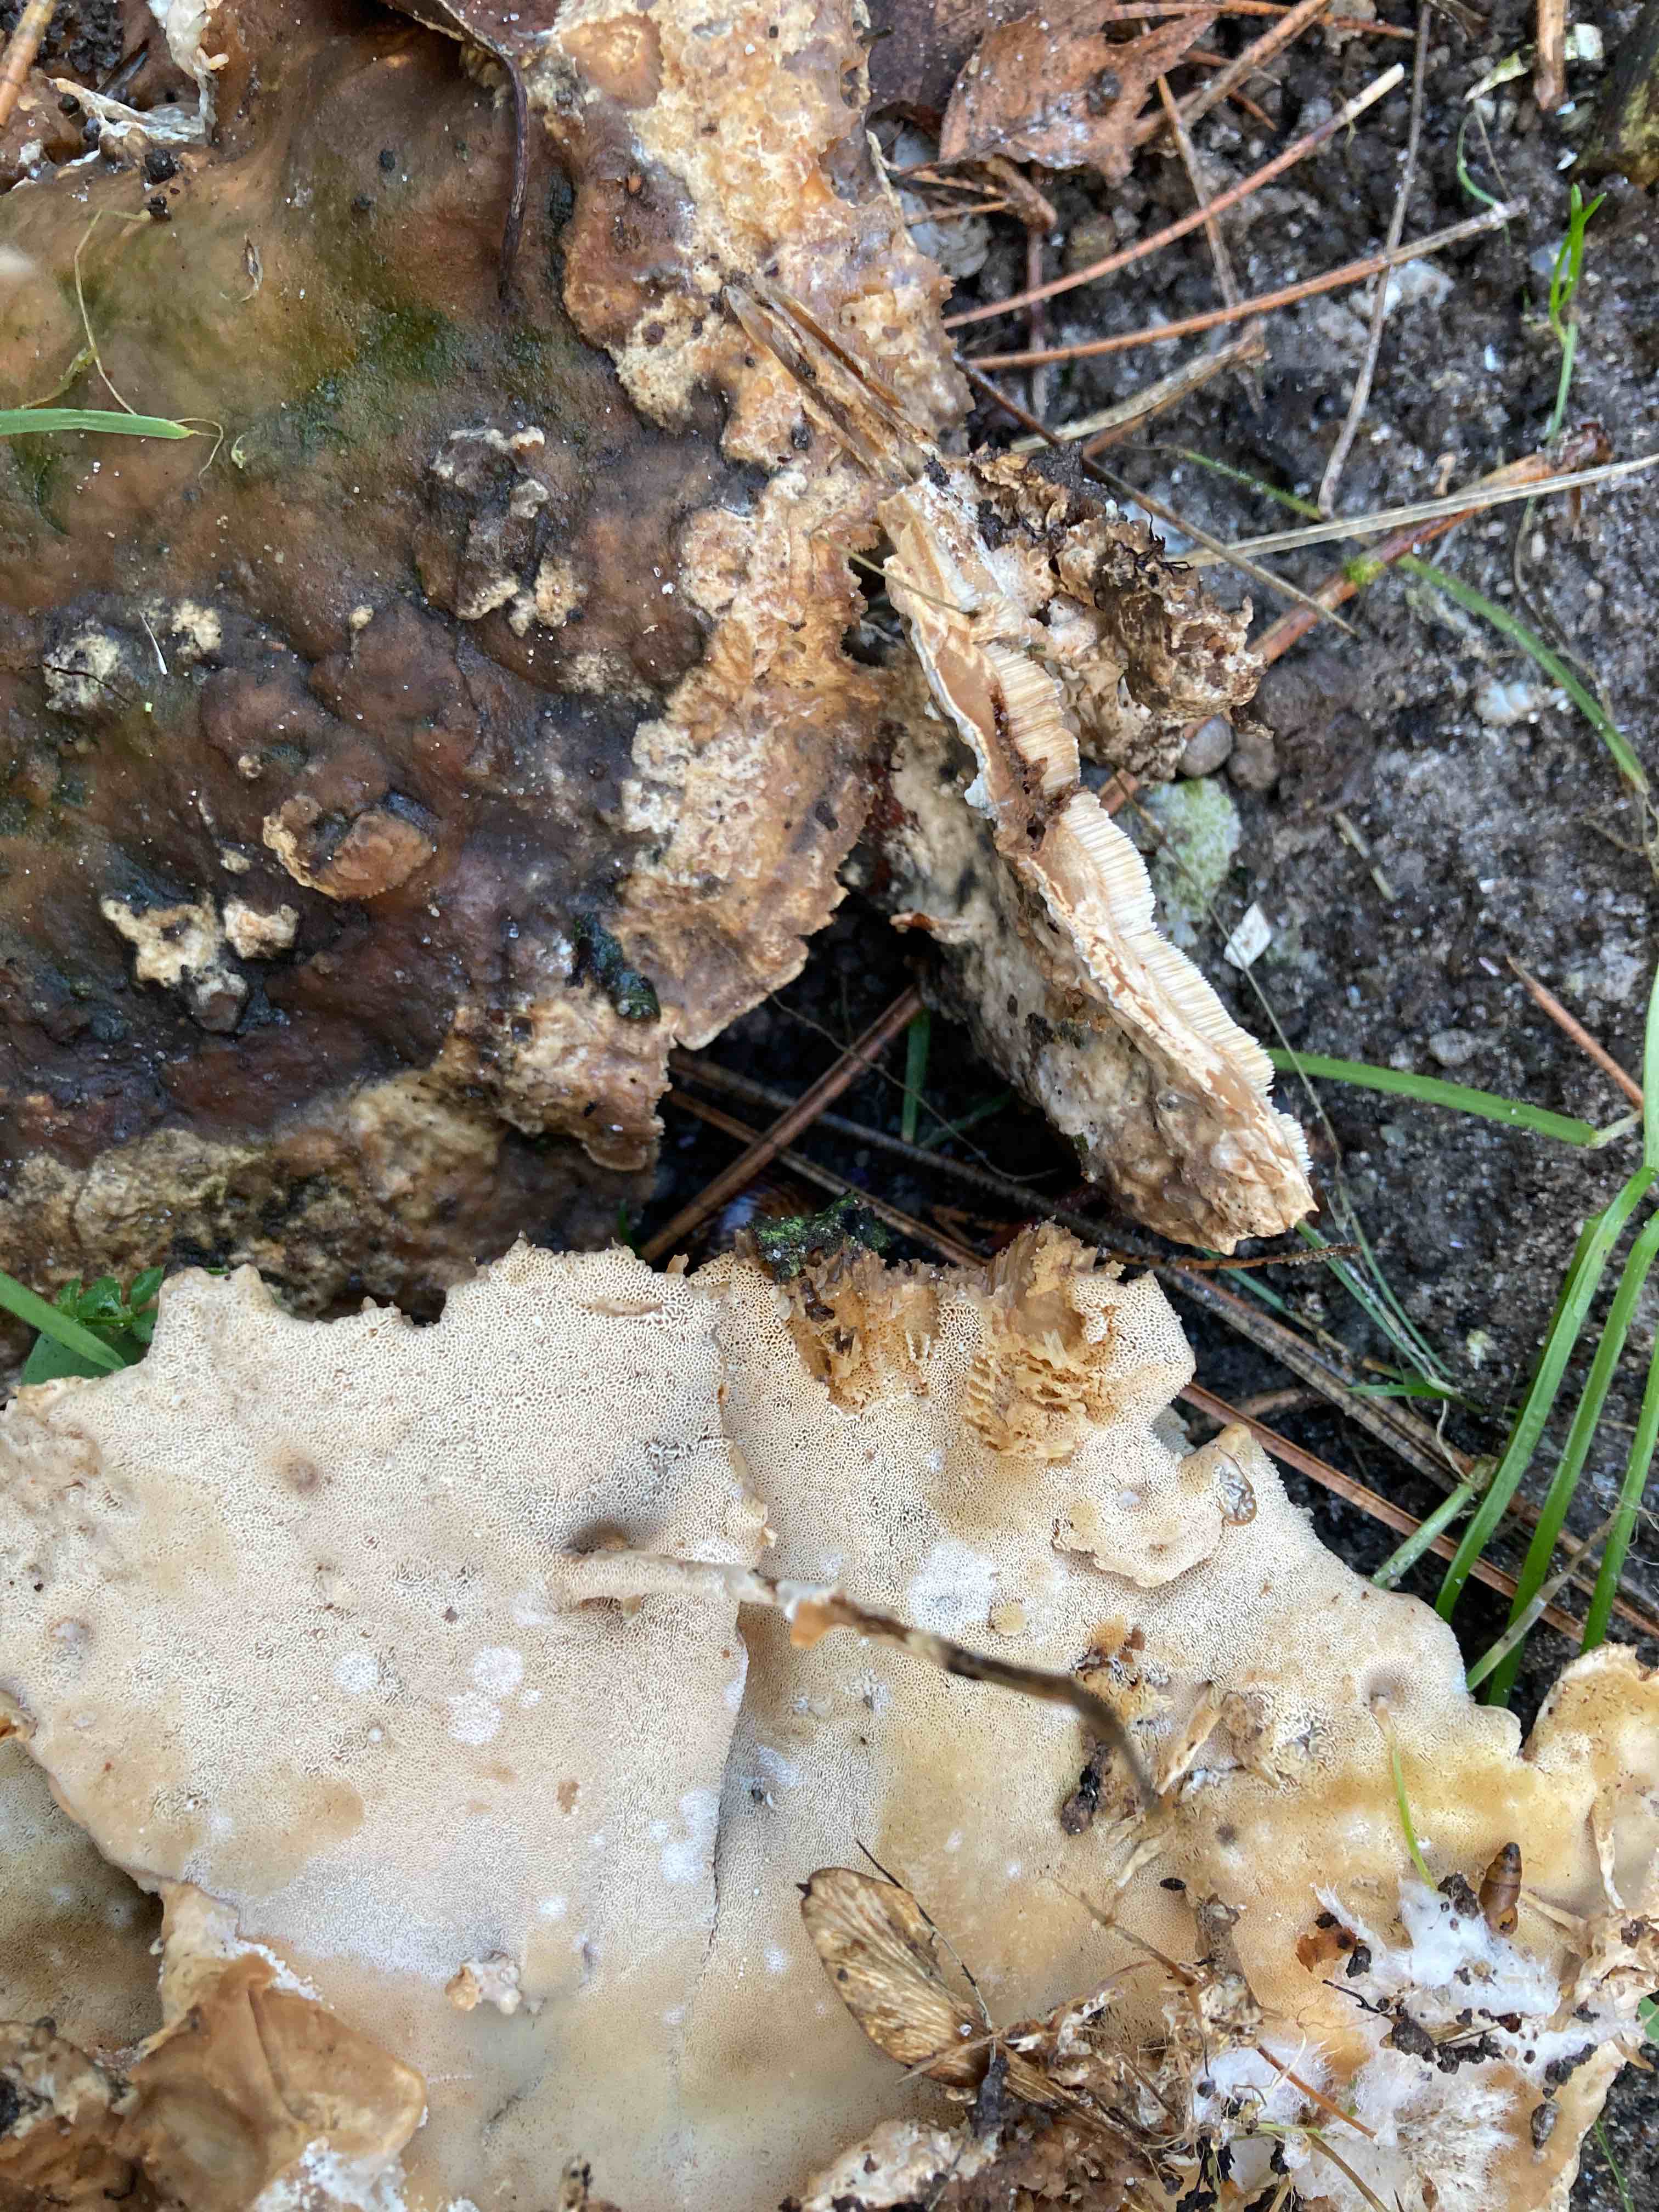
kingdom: Fungi
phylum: Basidiomycota
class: Agaricomycetes
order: Polyporales
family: Phanerochaetaceae
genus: Bjerkandera
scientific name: Bjerkandera fumosa
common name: grågul sodporesvamp
